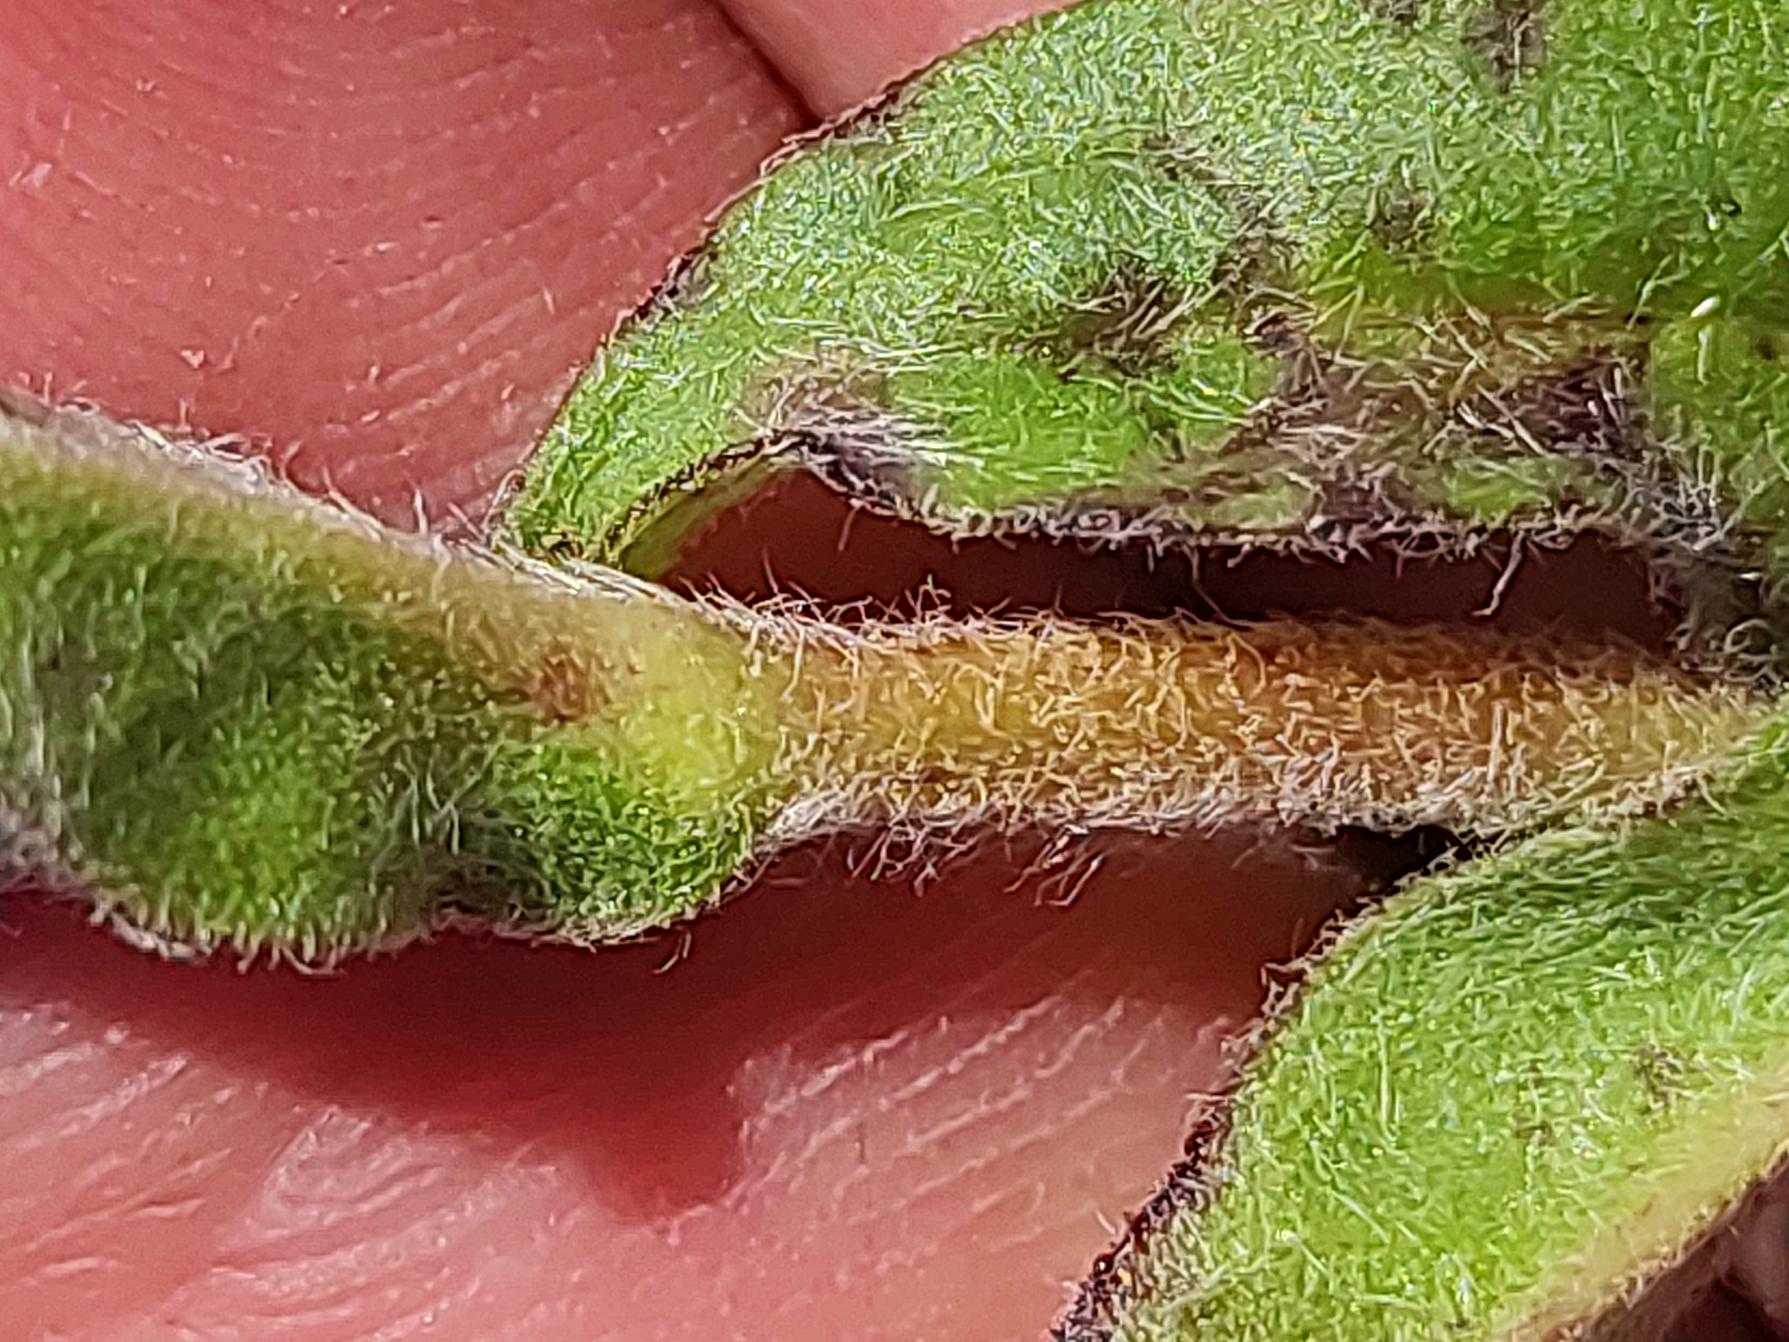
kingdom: Plantae
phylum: Tracheophyta
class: Magnoliopsida
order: Asterales
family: Asteraceae
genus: Pentanema
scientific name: Pentanema britannicum
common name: Soløje-alant
